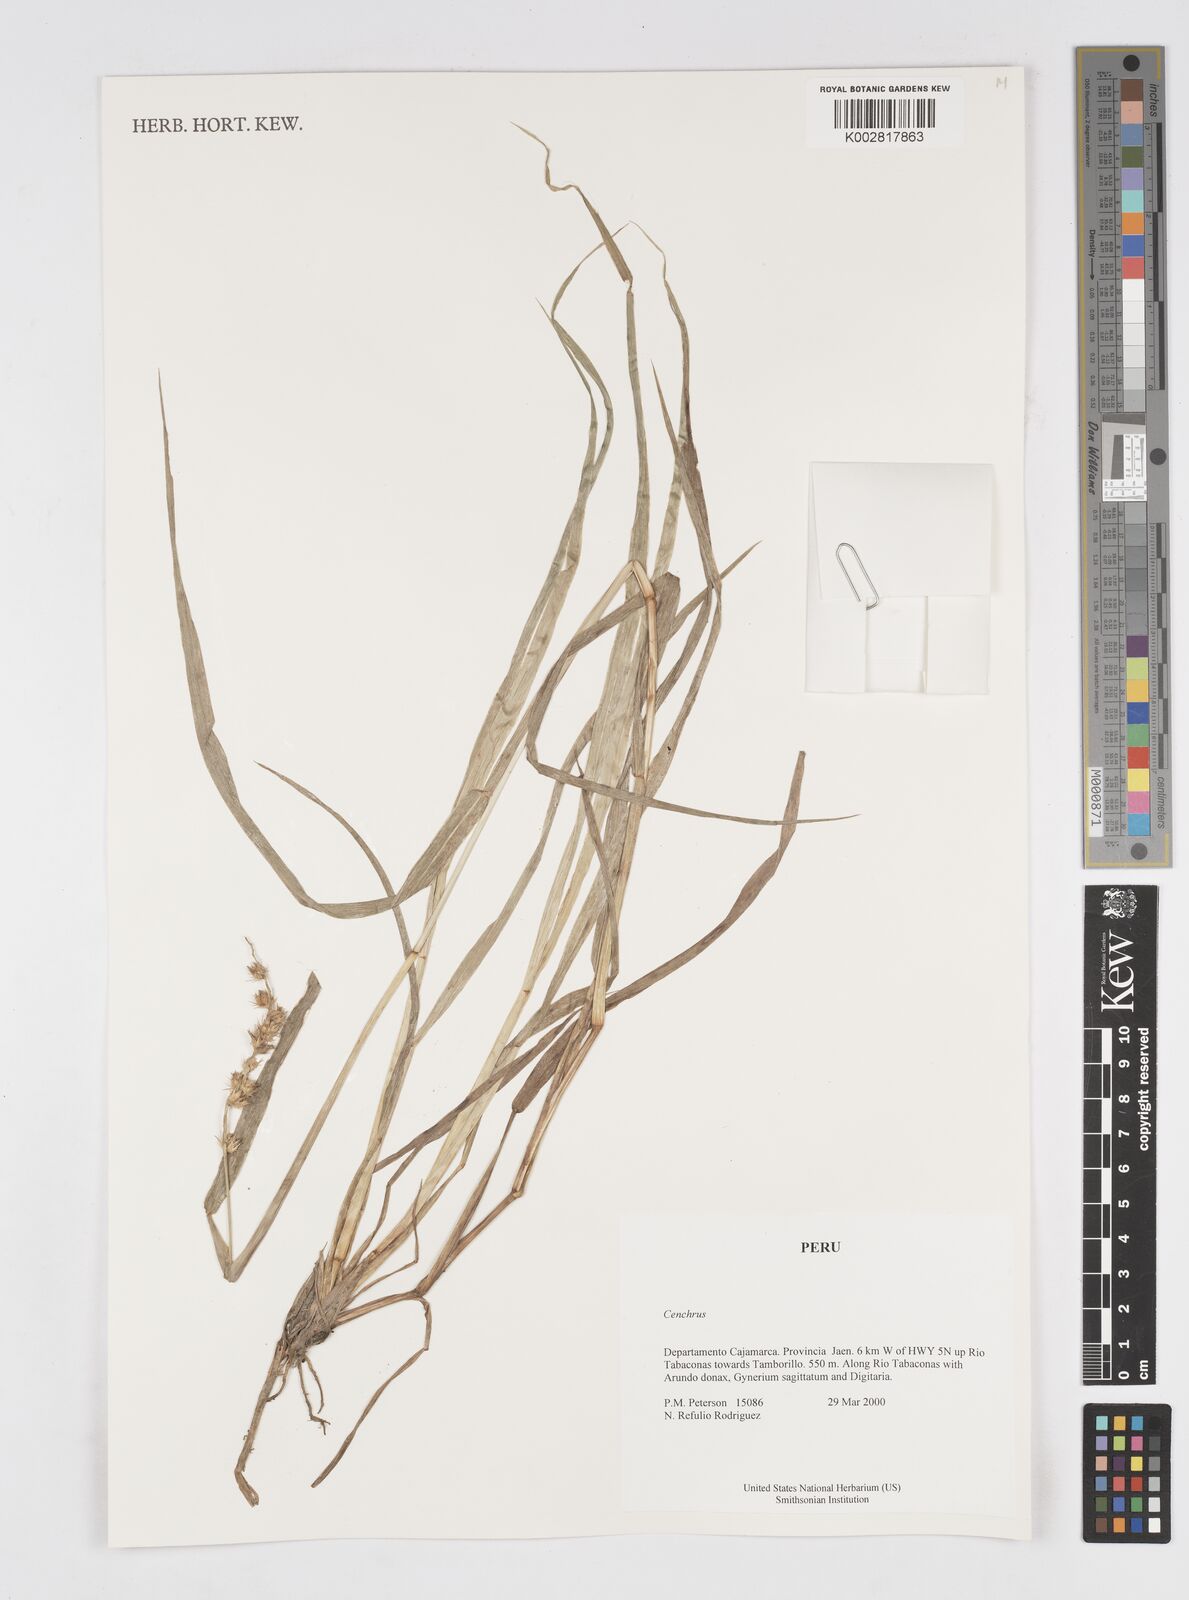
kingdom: Plantae
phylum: Tracheophyta
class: Liliopsida
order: Poales
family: Poaceae
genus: Cenchrus
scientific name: Cenchrus
